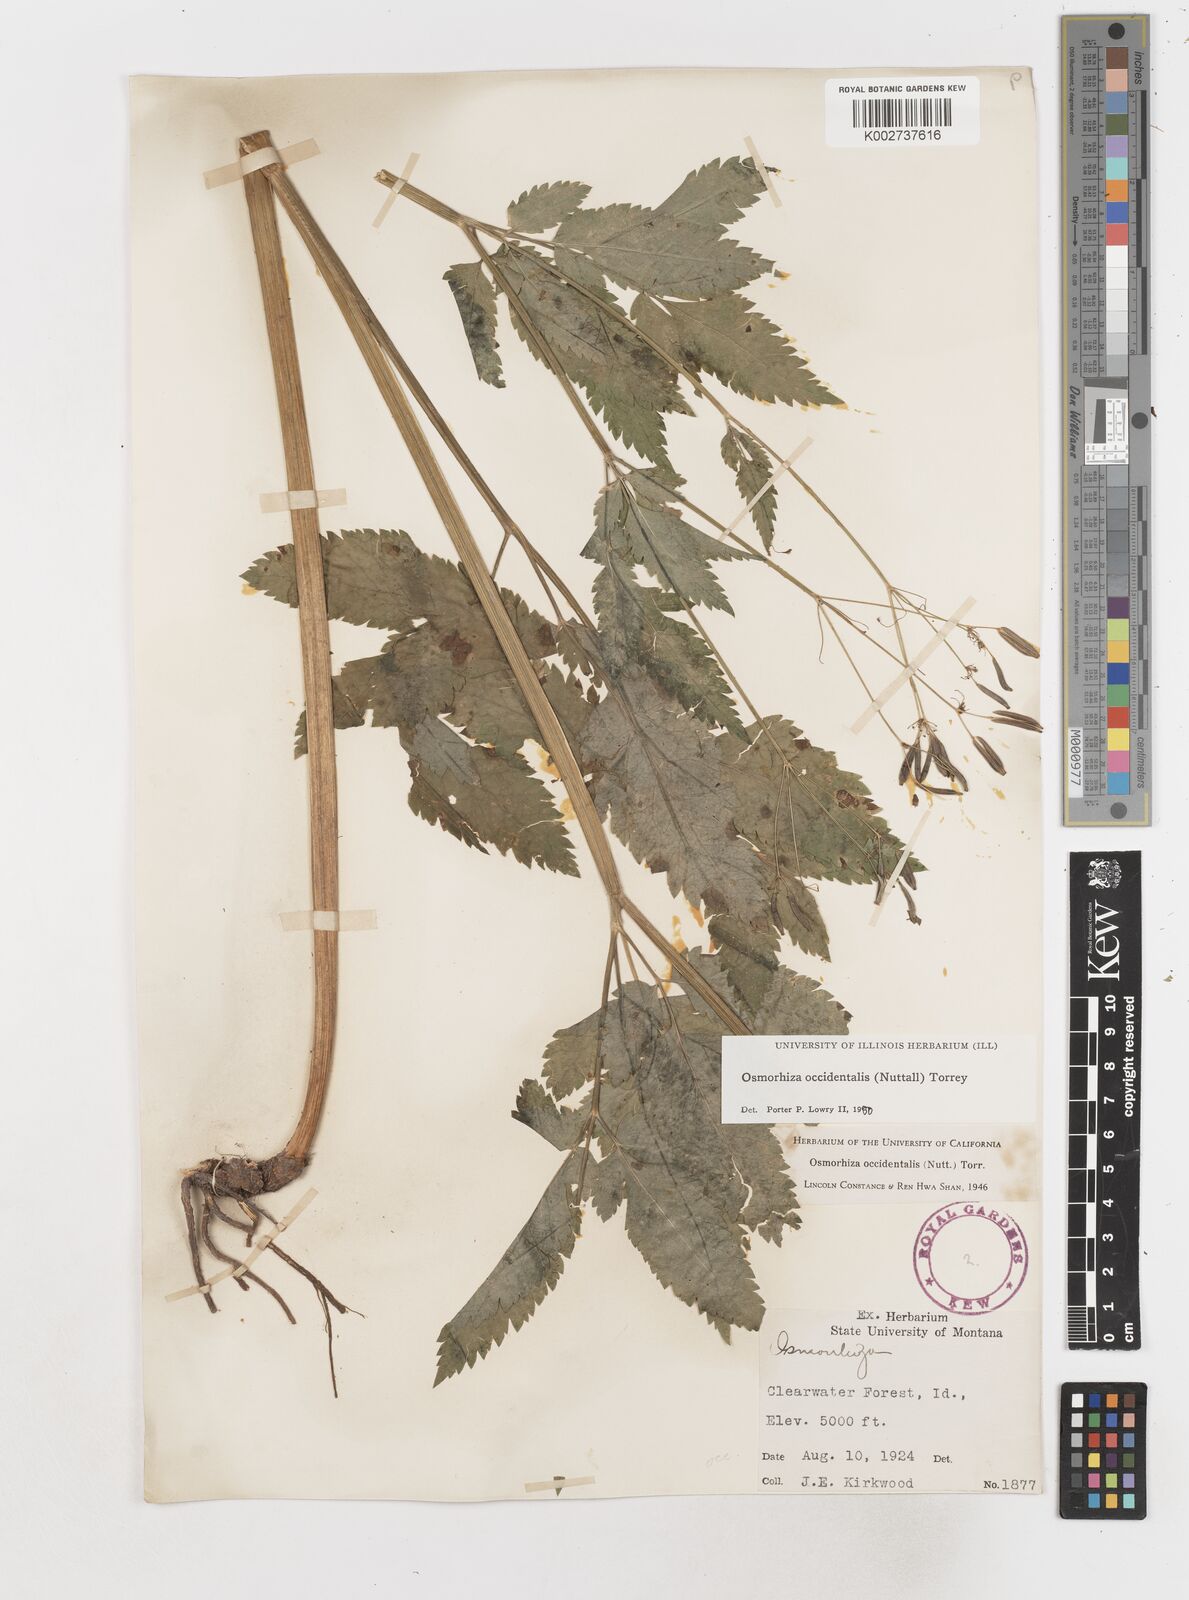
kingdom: Plantae
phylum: Tracheophyta
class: Magnoliopsida
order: Apiales
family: Apiaceae
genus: Osmorhiza
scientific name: Osmorhiza occidentalis
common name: Western sweet cicely
